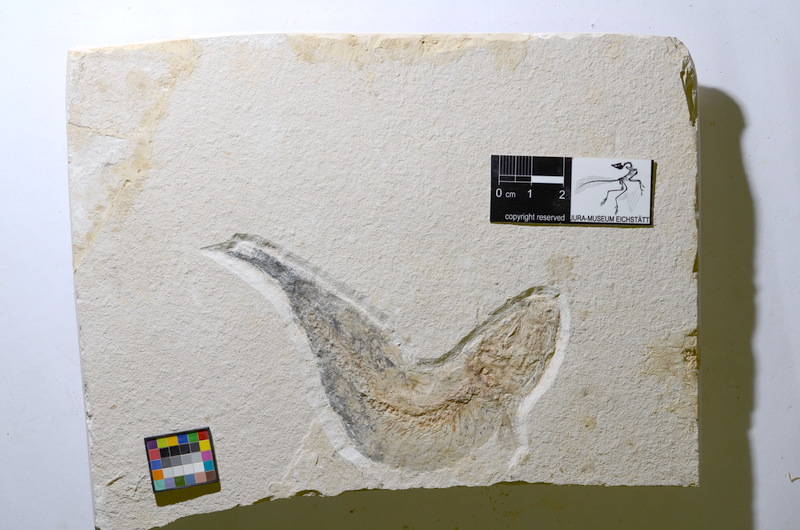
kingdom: Animalia
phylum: Chordata
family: Ascalaboidae
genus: Tharsis
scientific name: Tharsis
